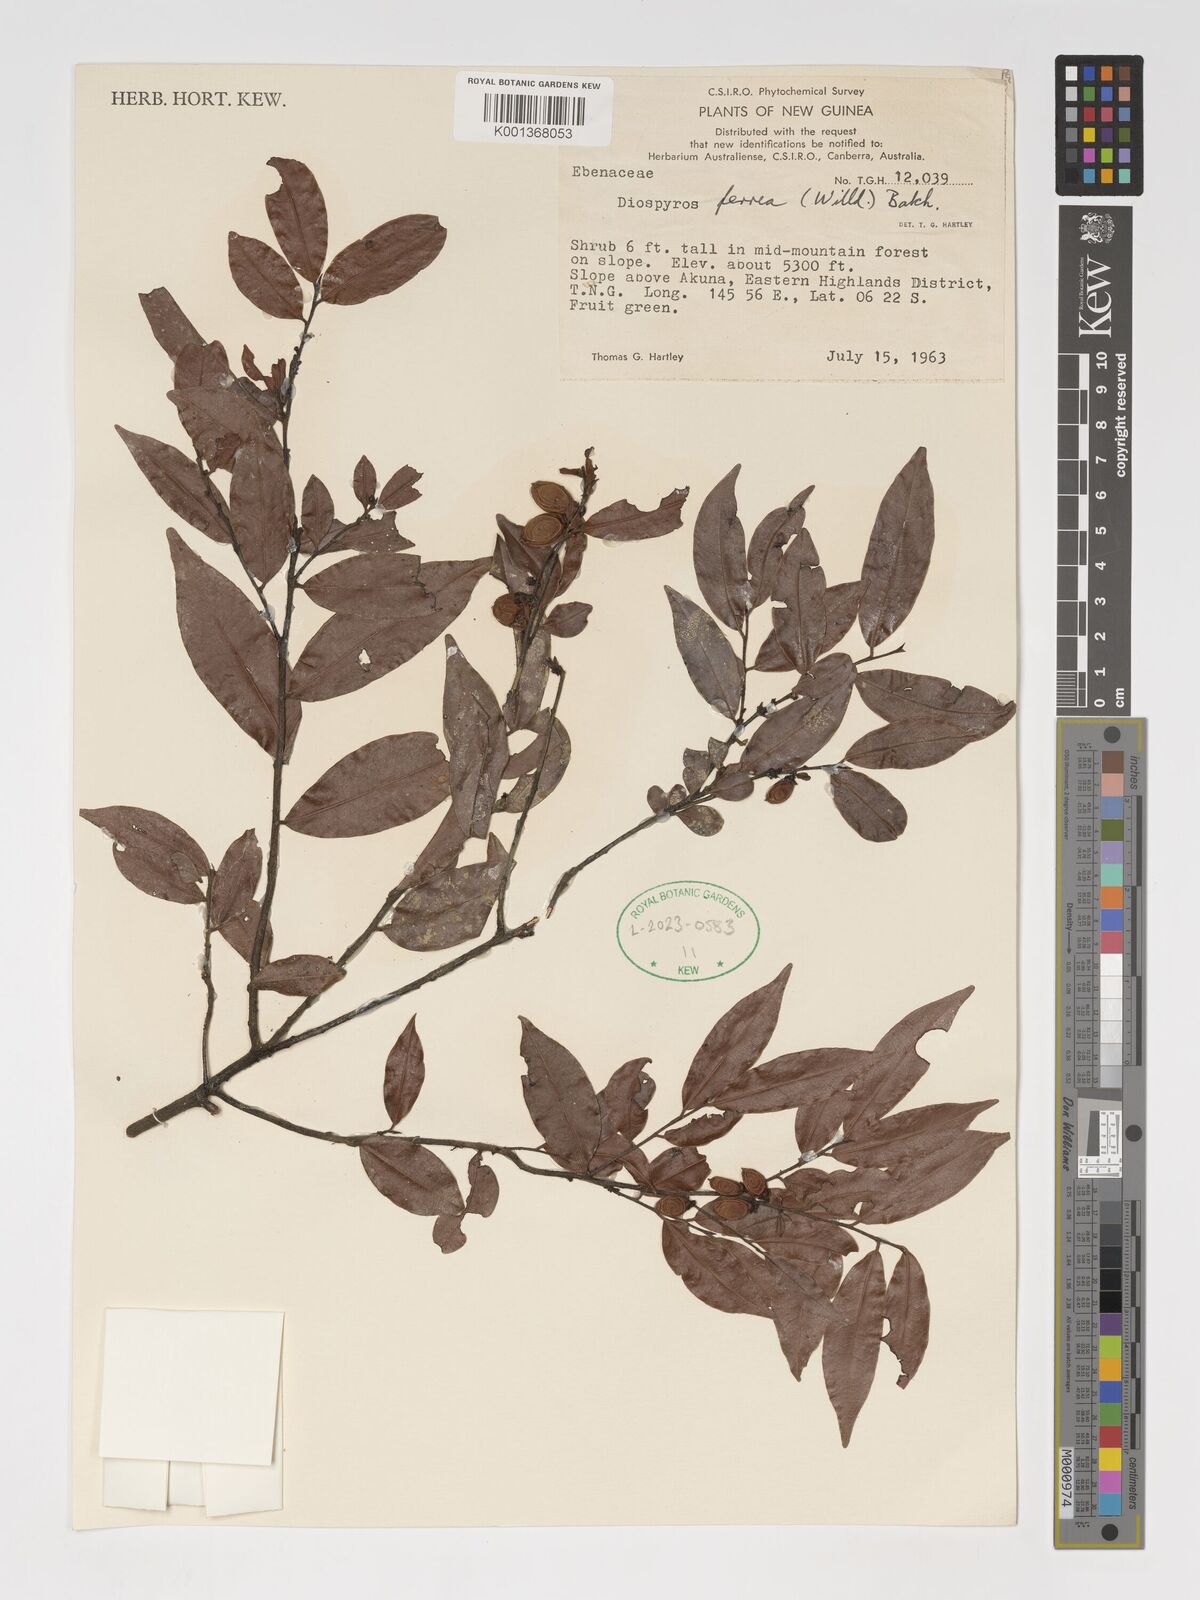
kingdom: Plantae
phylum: Tracheophyta
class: Magnoliopsida
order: Ericales
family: Ebenaceae
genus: Diospyros
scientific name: Diospyros ferrea
